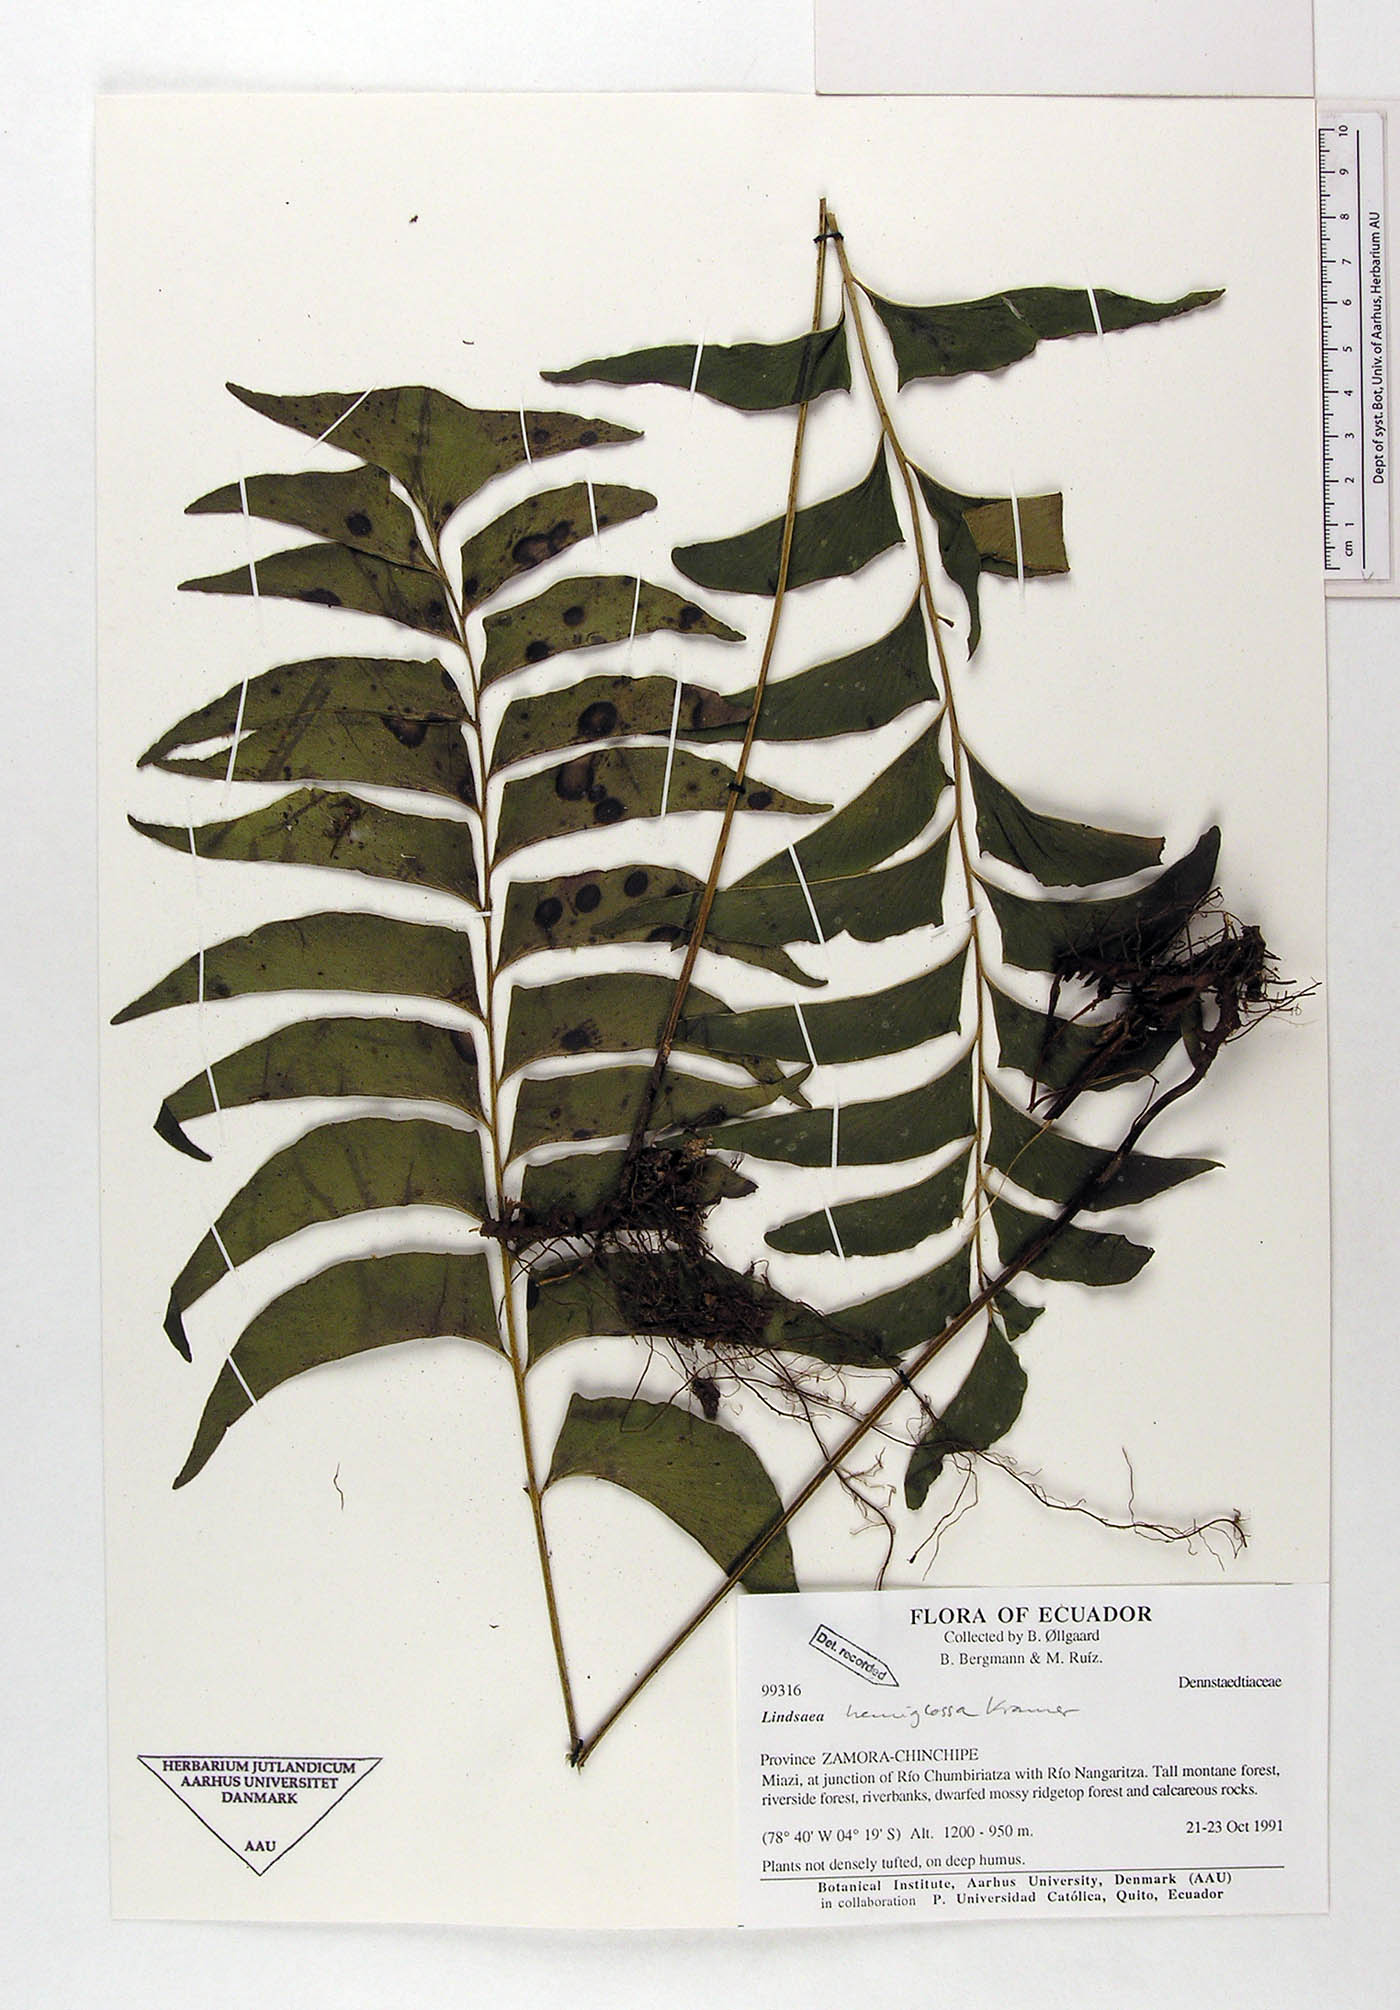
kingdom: Plantae
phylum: Tracheophyta
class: Polypodiopsida
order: Polypodiales
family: Lindsaeaceae
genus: Lindsaea
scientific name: Lindsaea hemiglossa
